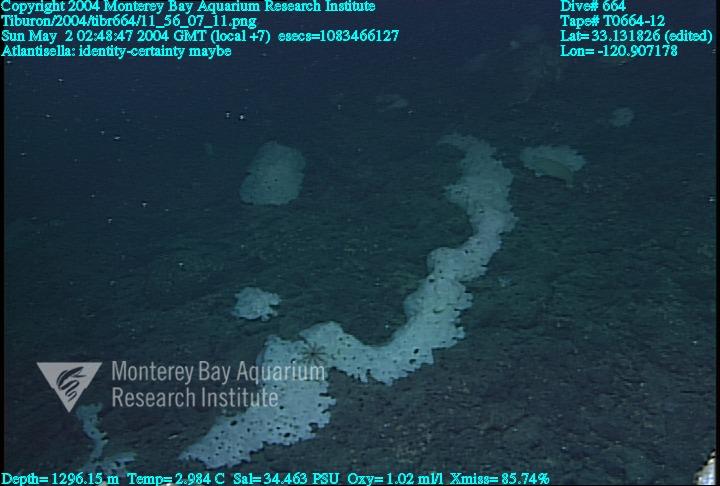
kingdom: Animalia
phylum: Porifera
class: Hexactinellida
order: Lyssacinosida
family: Euplectellidae
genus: Atlantisella
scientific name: Atlantisella
